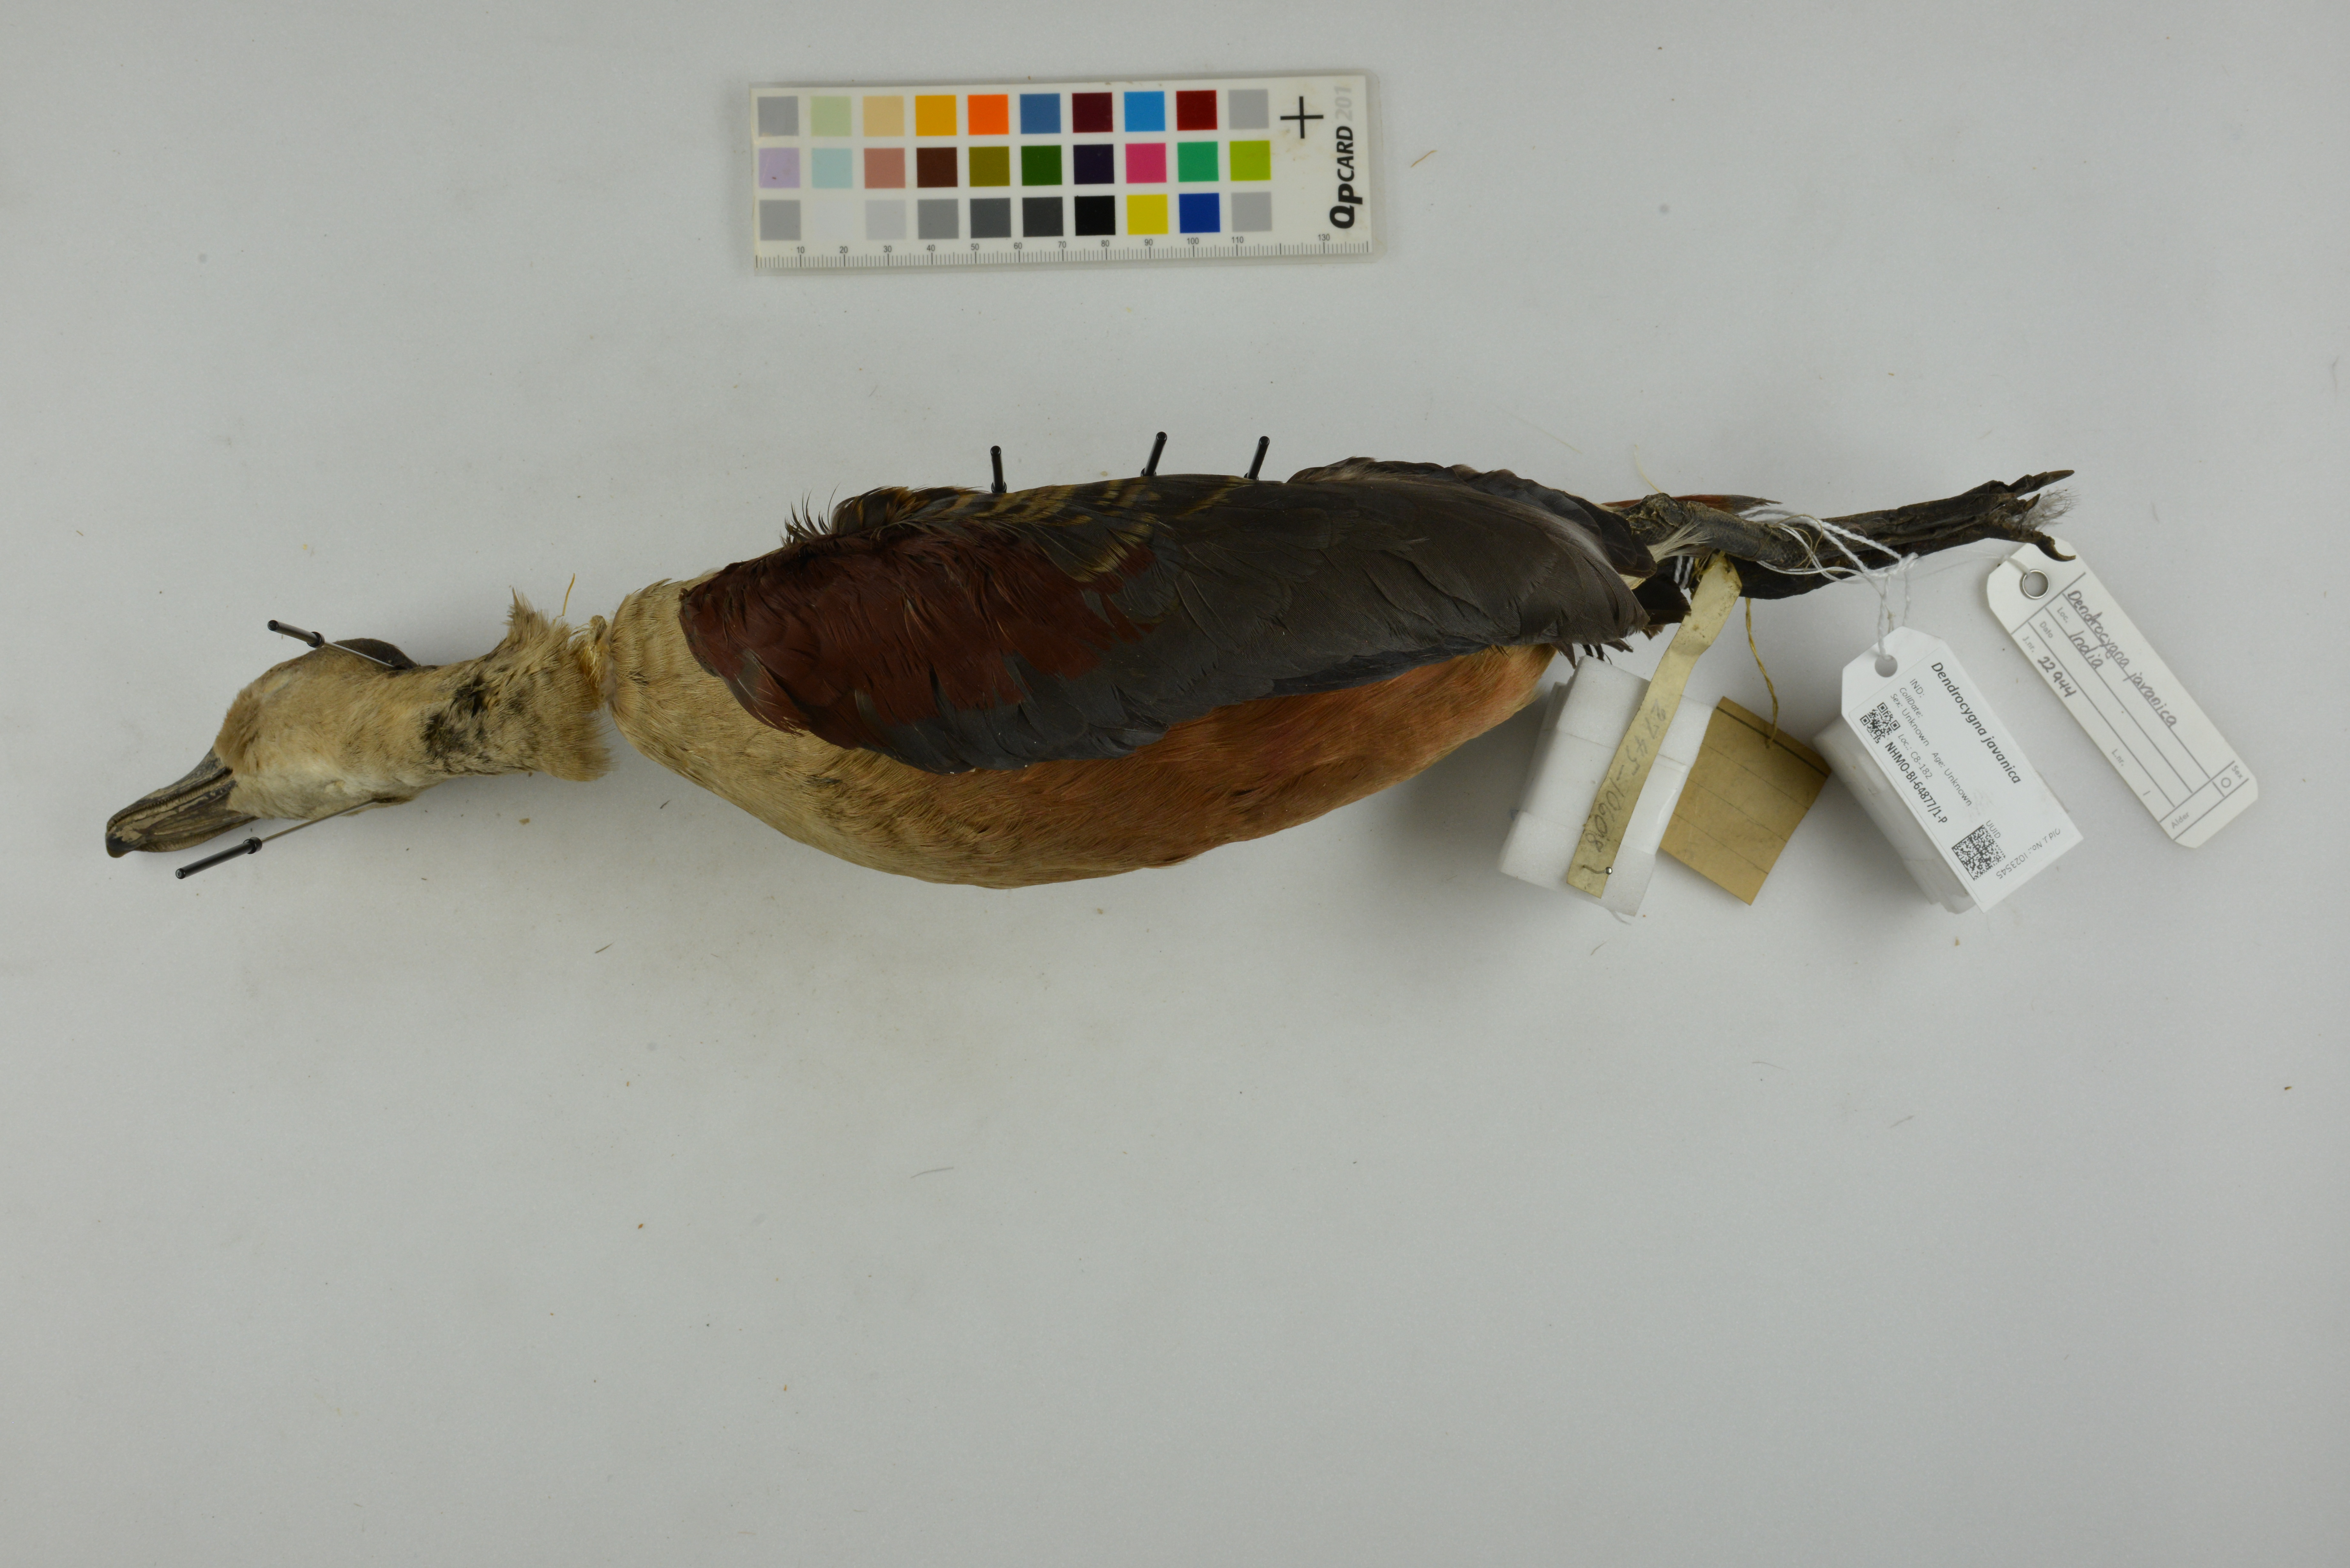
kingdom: Animalia
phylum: Chordata
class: Aves
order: Anseriformes
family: Anatidae
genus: Dendrocygna
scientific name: Dendrocygna javanica
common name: Lesser whistling-duck
